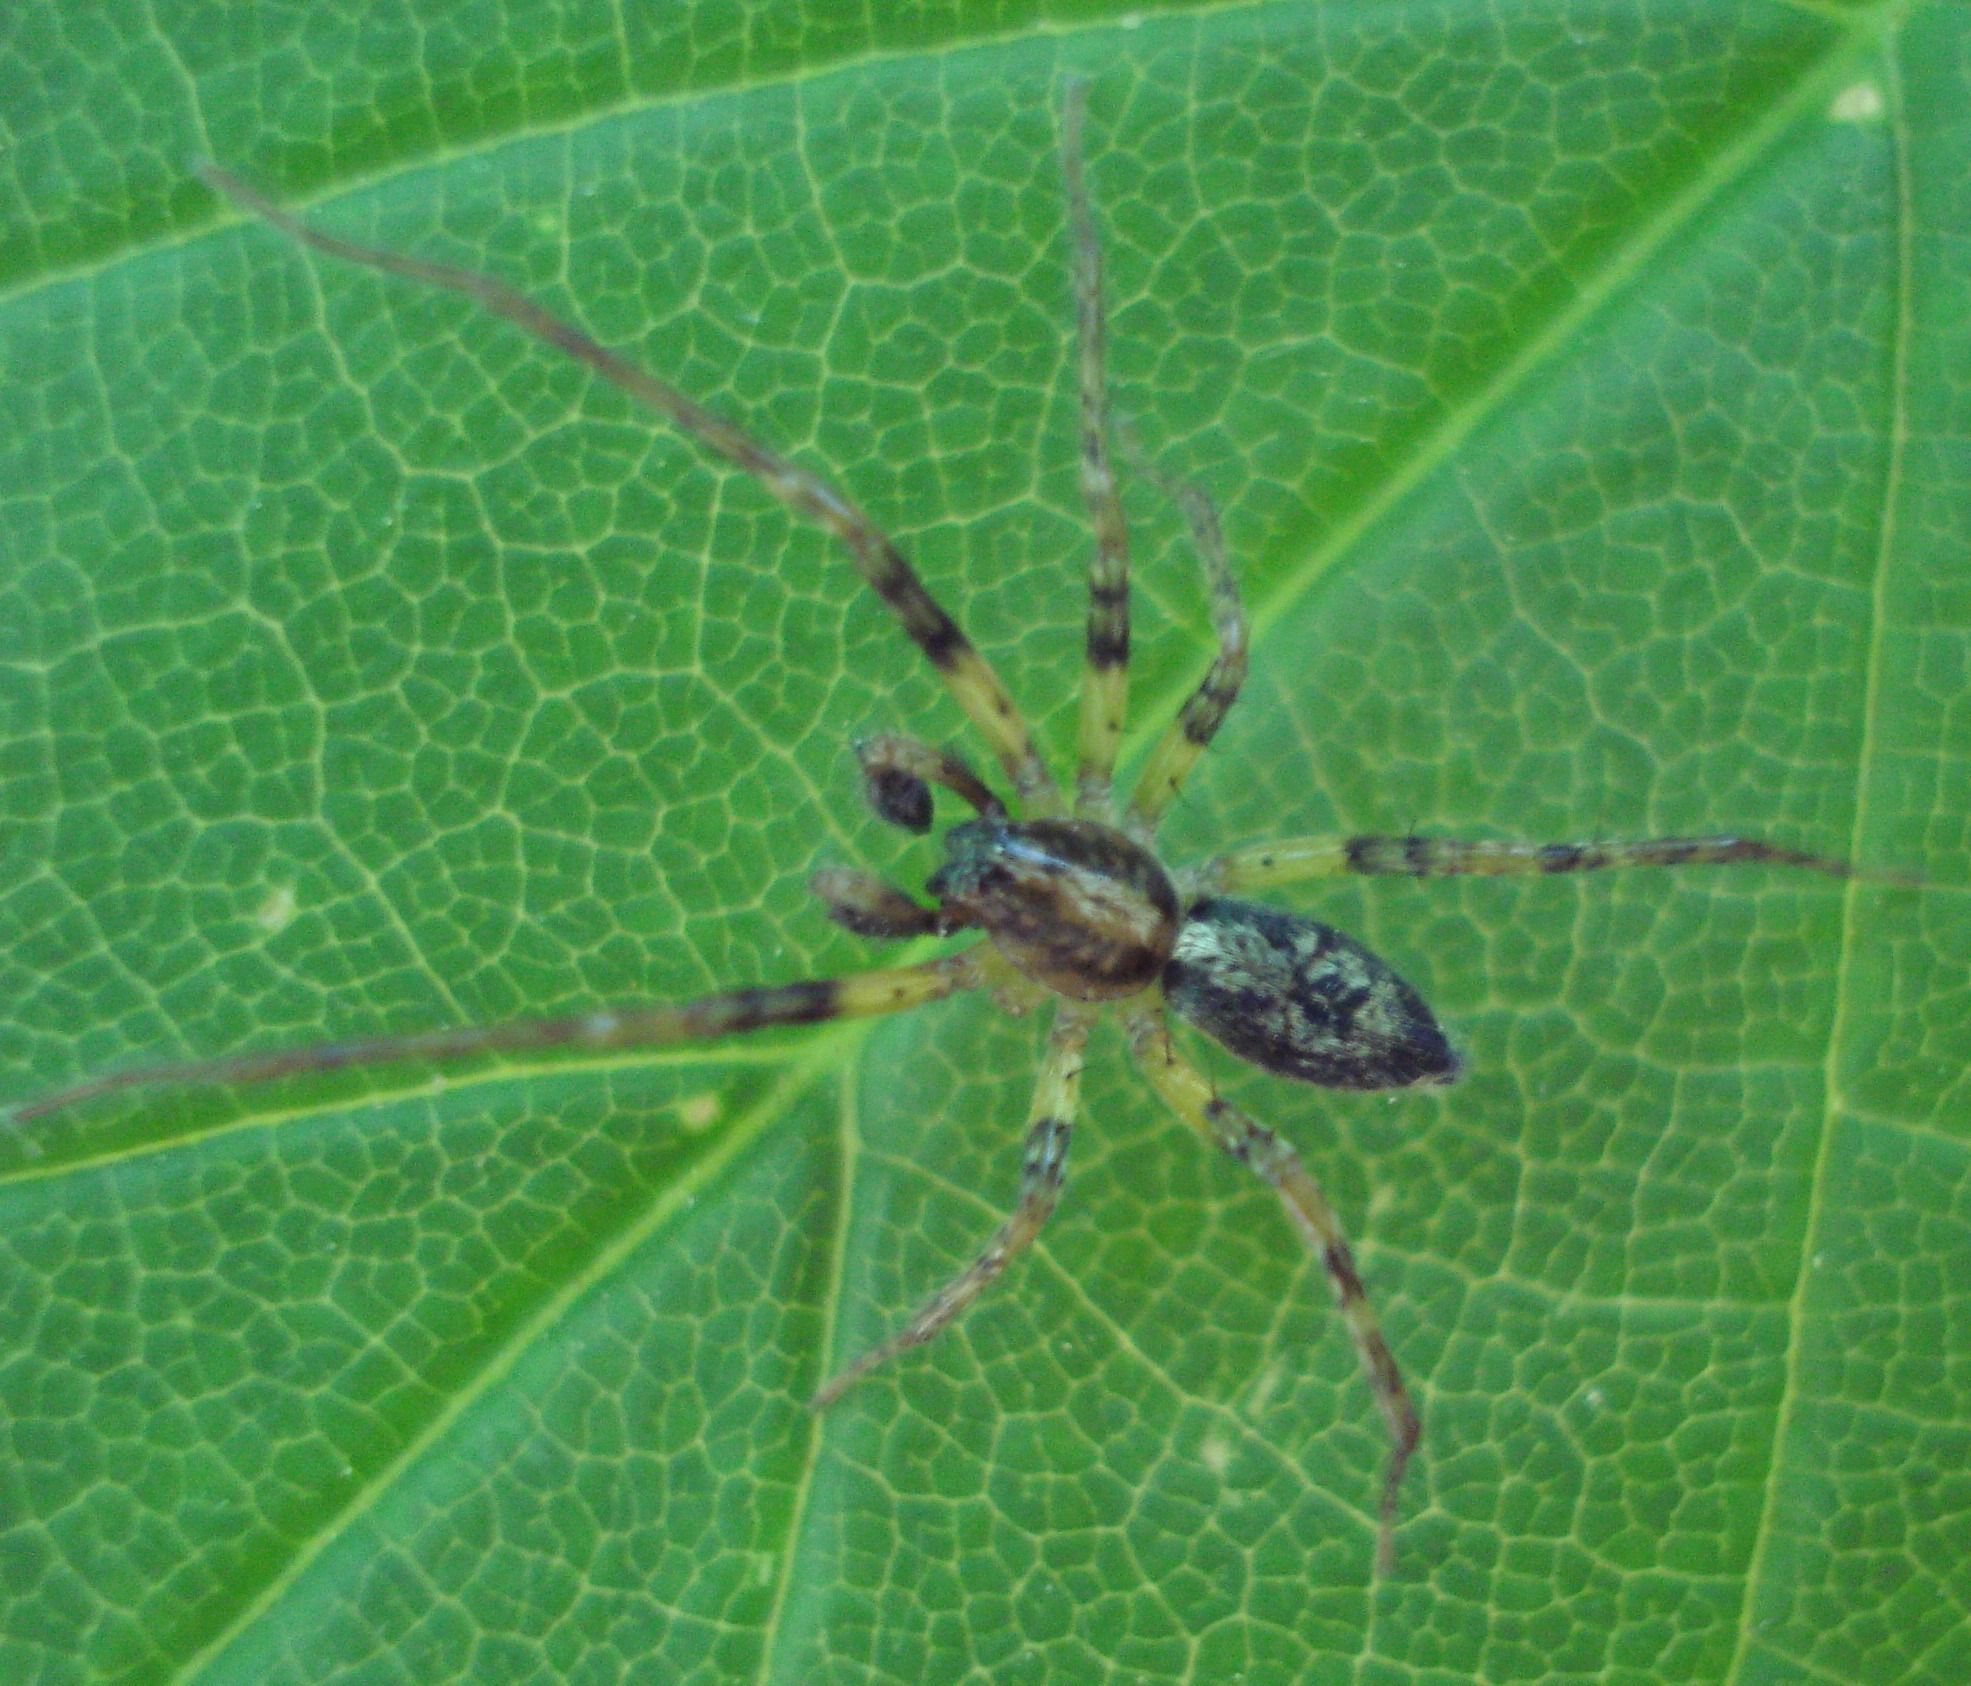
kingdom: Animalia
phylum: Arthropoda
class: Arachnida
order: Araneae
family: Anyphaenidae
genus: Anyphaena
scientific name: Anyphaena accentuata
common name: Summeedderkop
